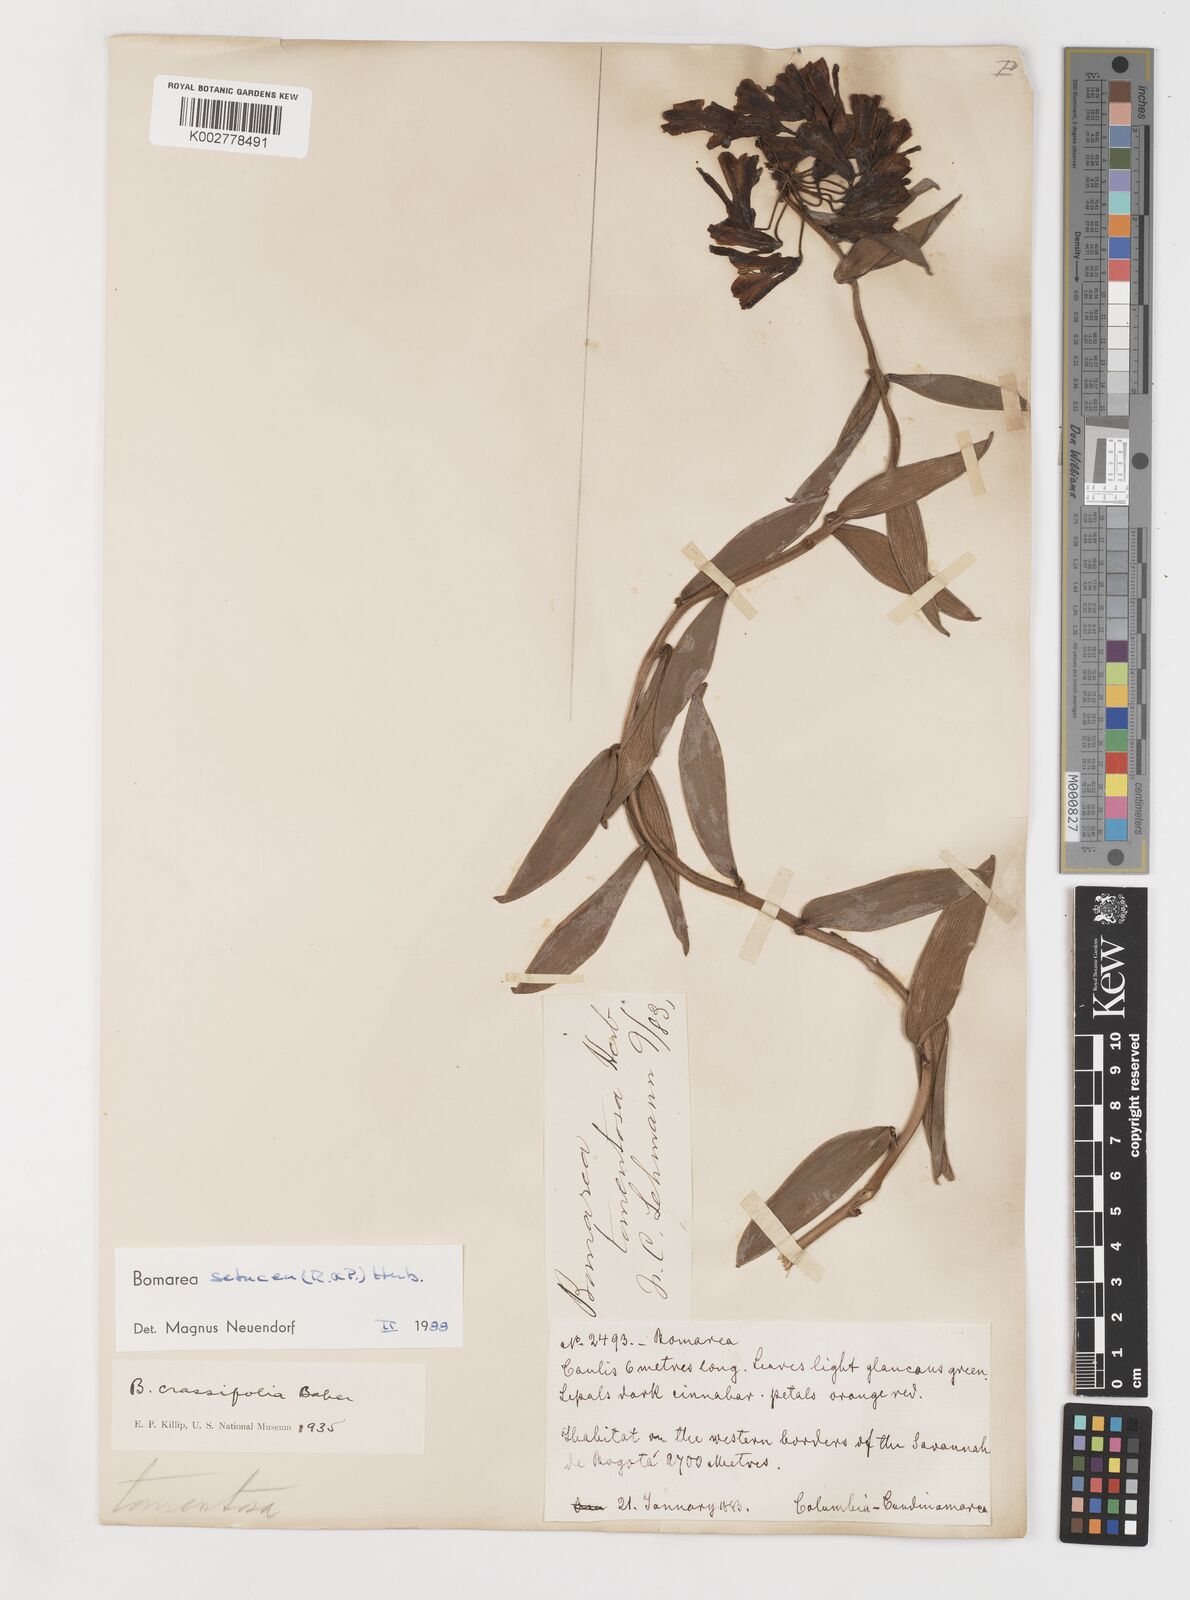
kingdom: Plantae
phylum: Tracheophyta
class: Liliopsida
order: Liliales
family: Alstroemeriaceae
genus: Bomarea
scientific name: Bomarea setacea
